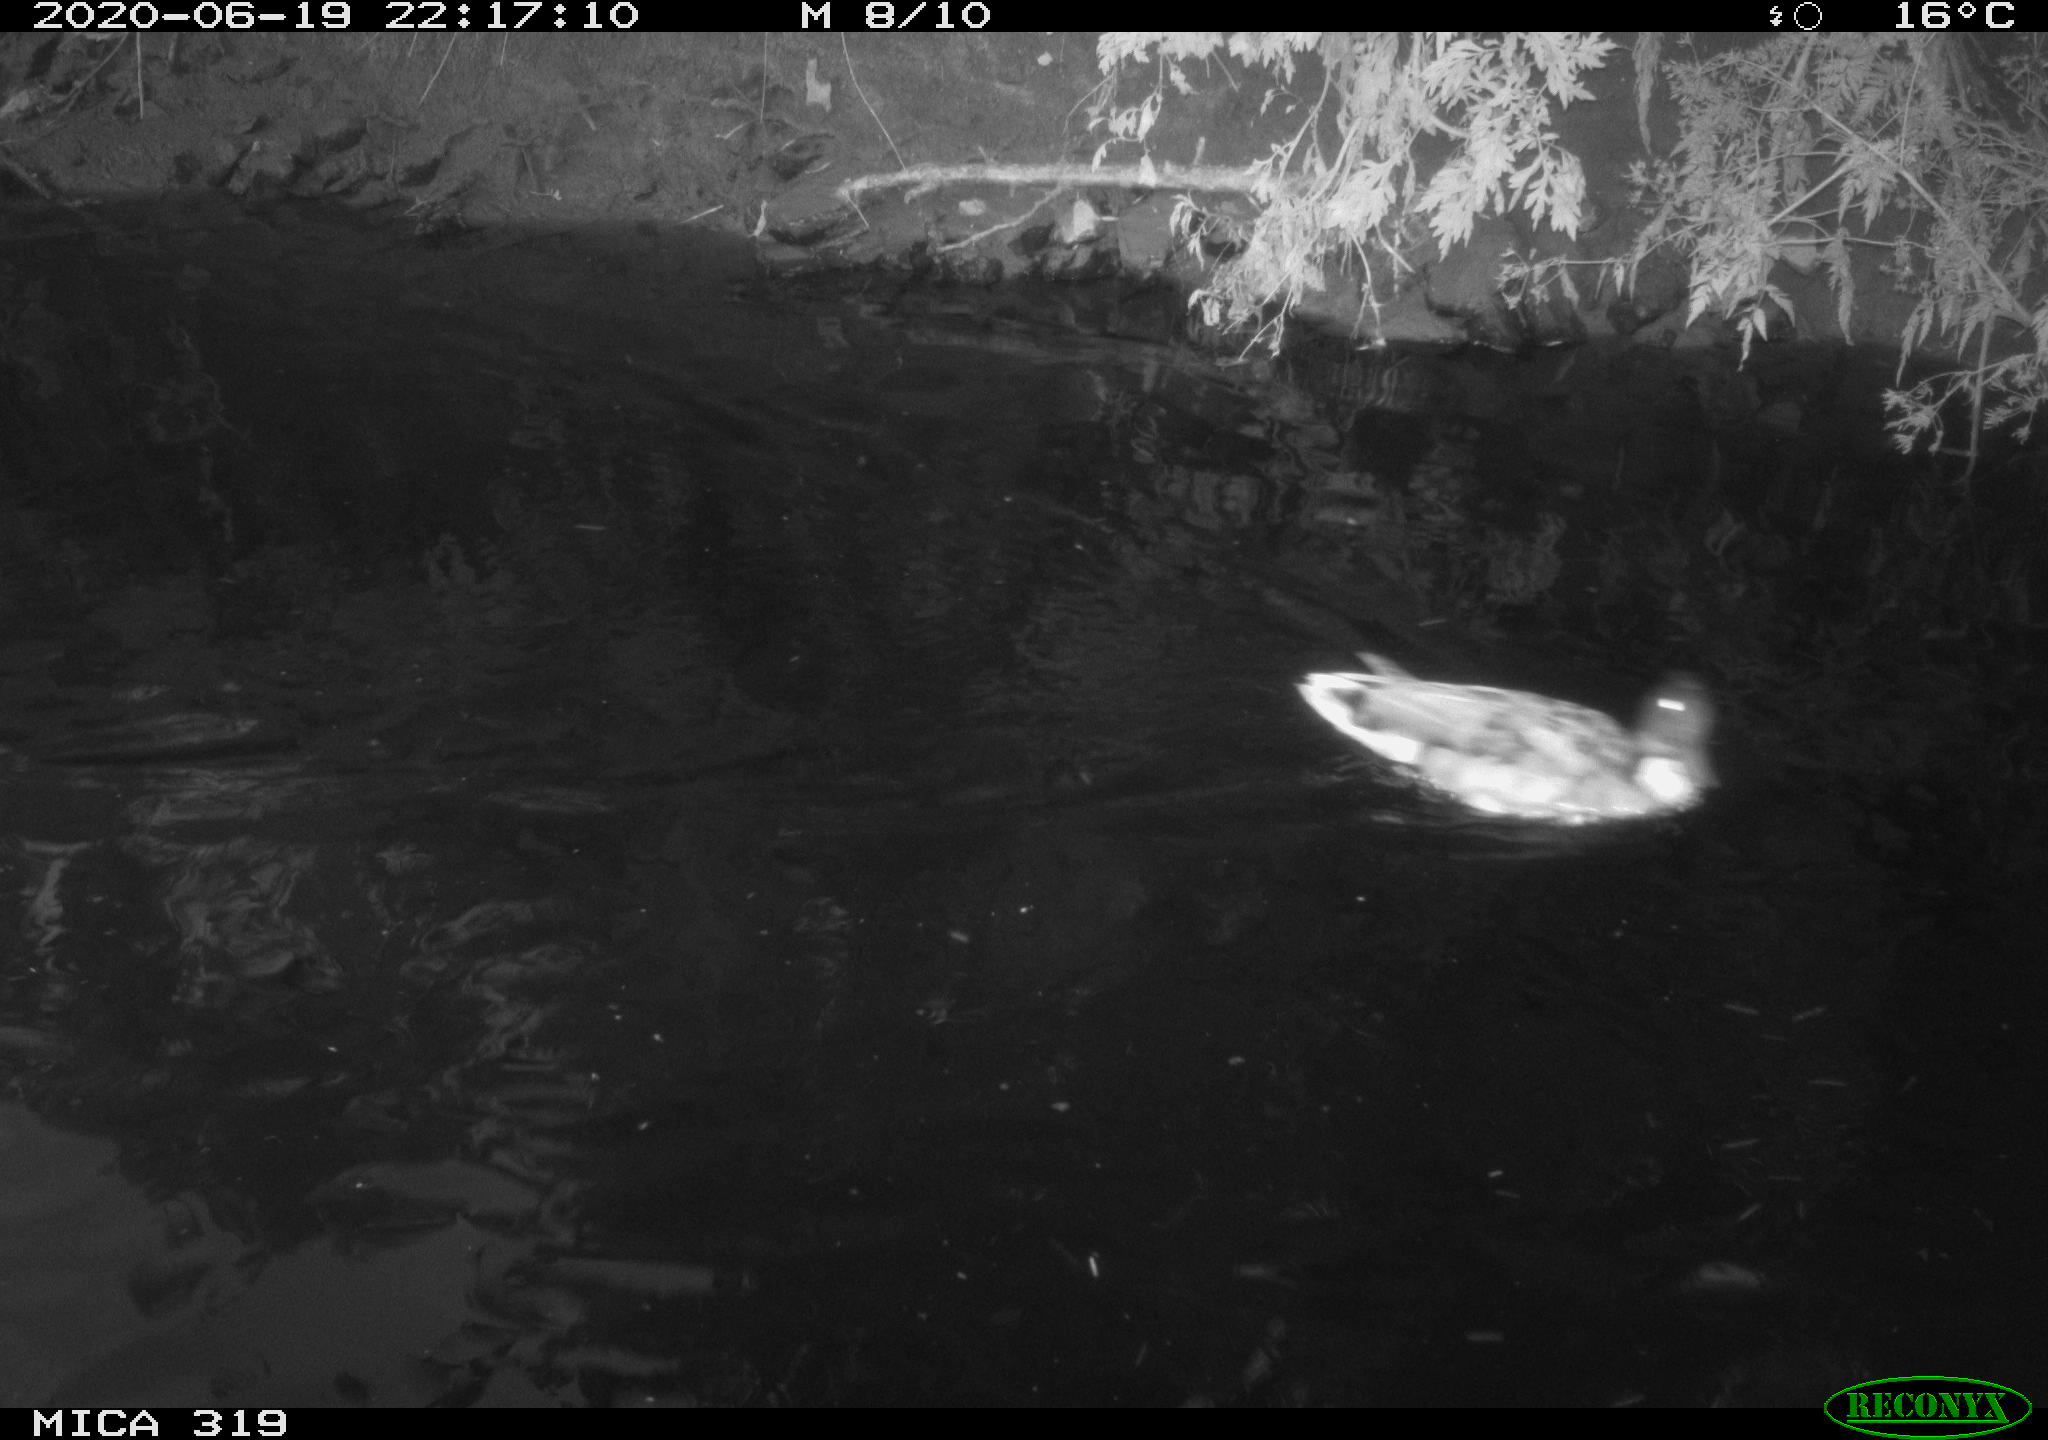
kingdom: Animalia
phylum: Chordata
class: Aves
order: Anseriformes
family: Anatidae
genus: Anas
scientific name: Anas platyrhynchos
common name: Mallard
